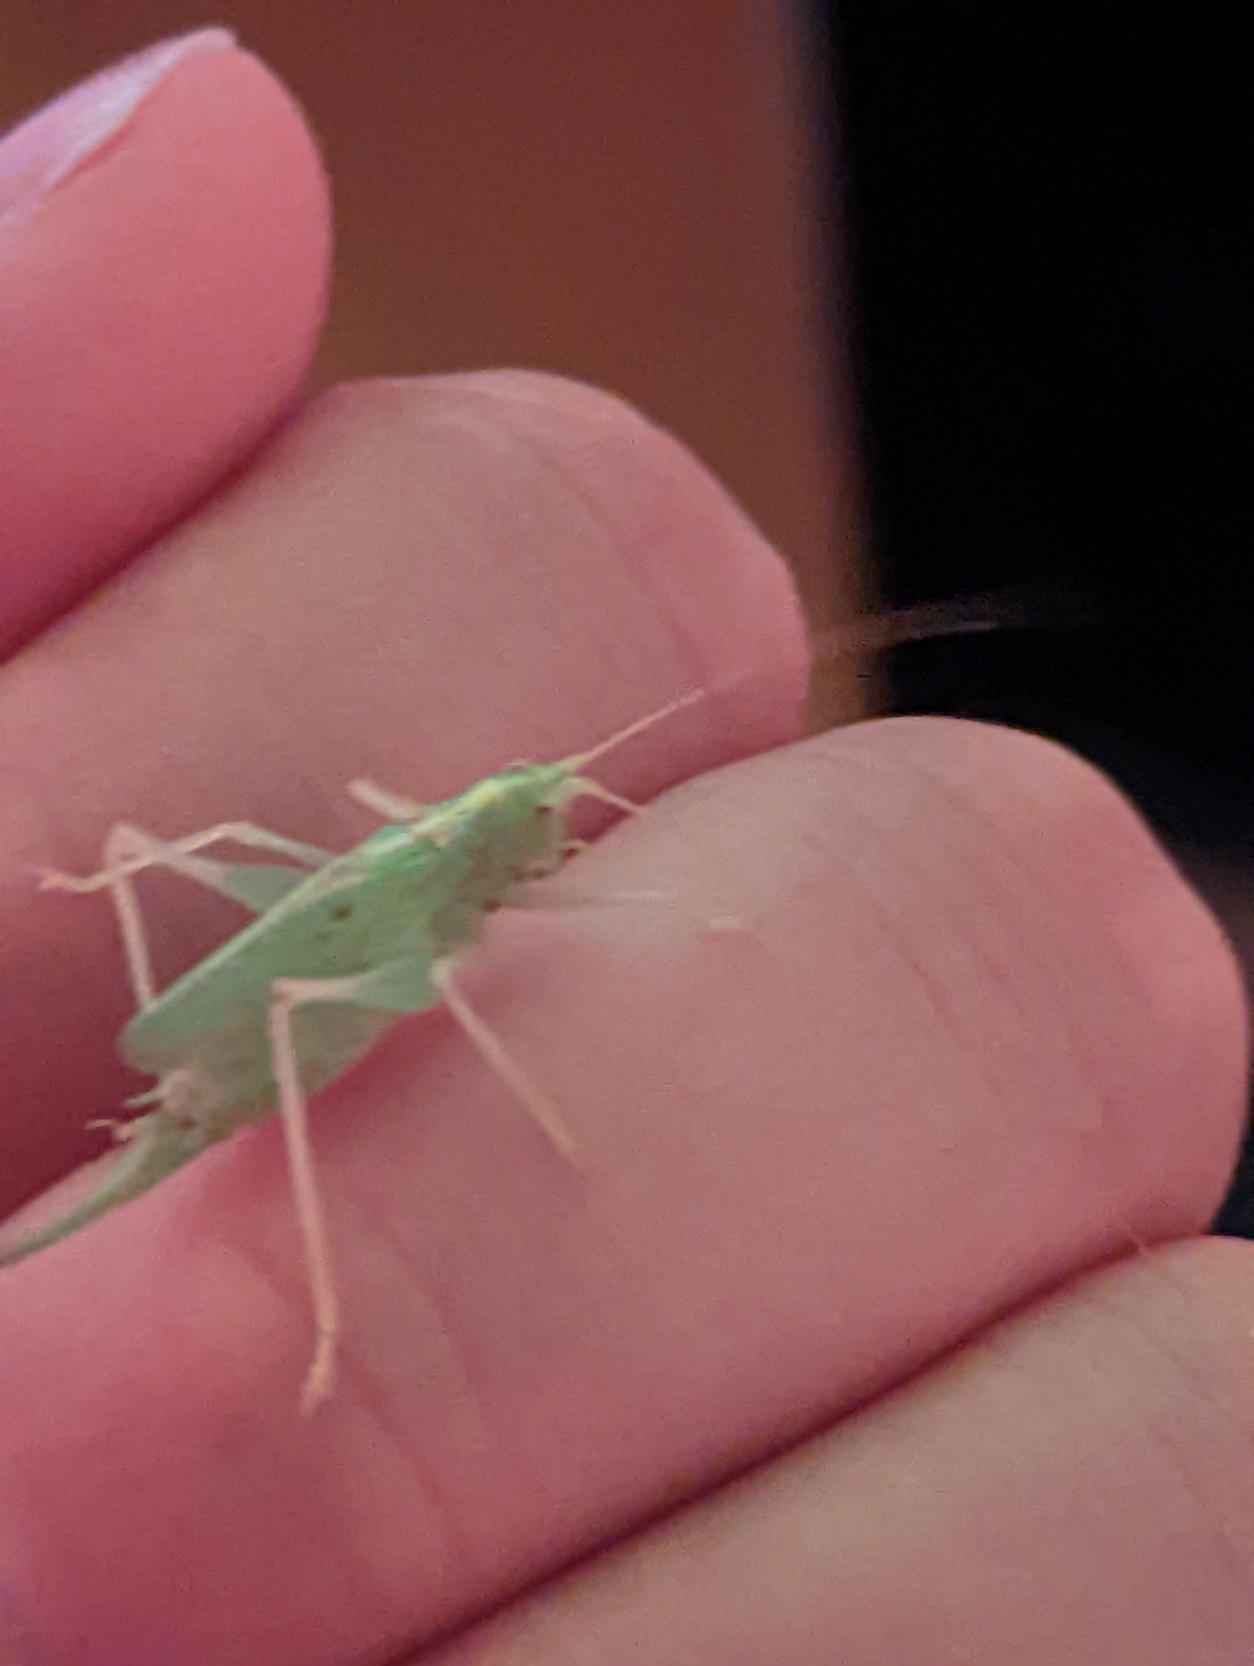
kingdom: Animalia
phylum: Arthropoda
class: Insecta
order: Orthoptera
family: Tettigoniidae
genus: Meconema
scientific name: Meconema thalassinum
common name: Egegræshoppe
